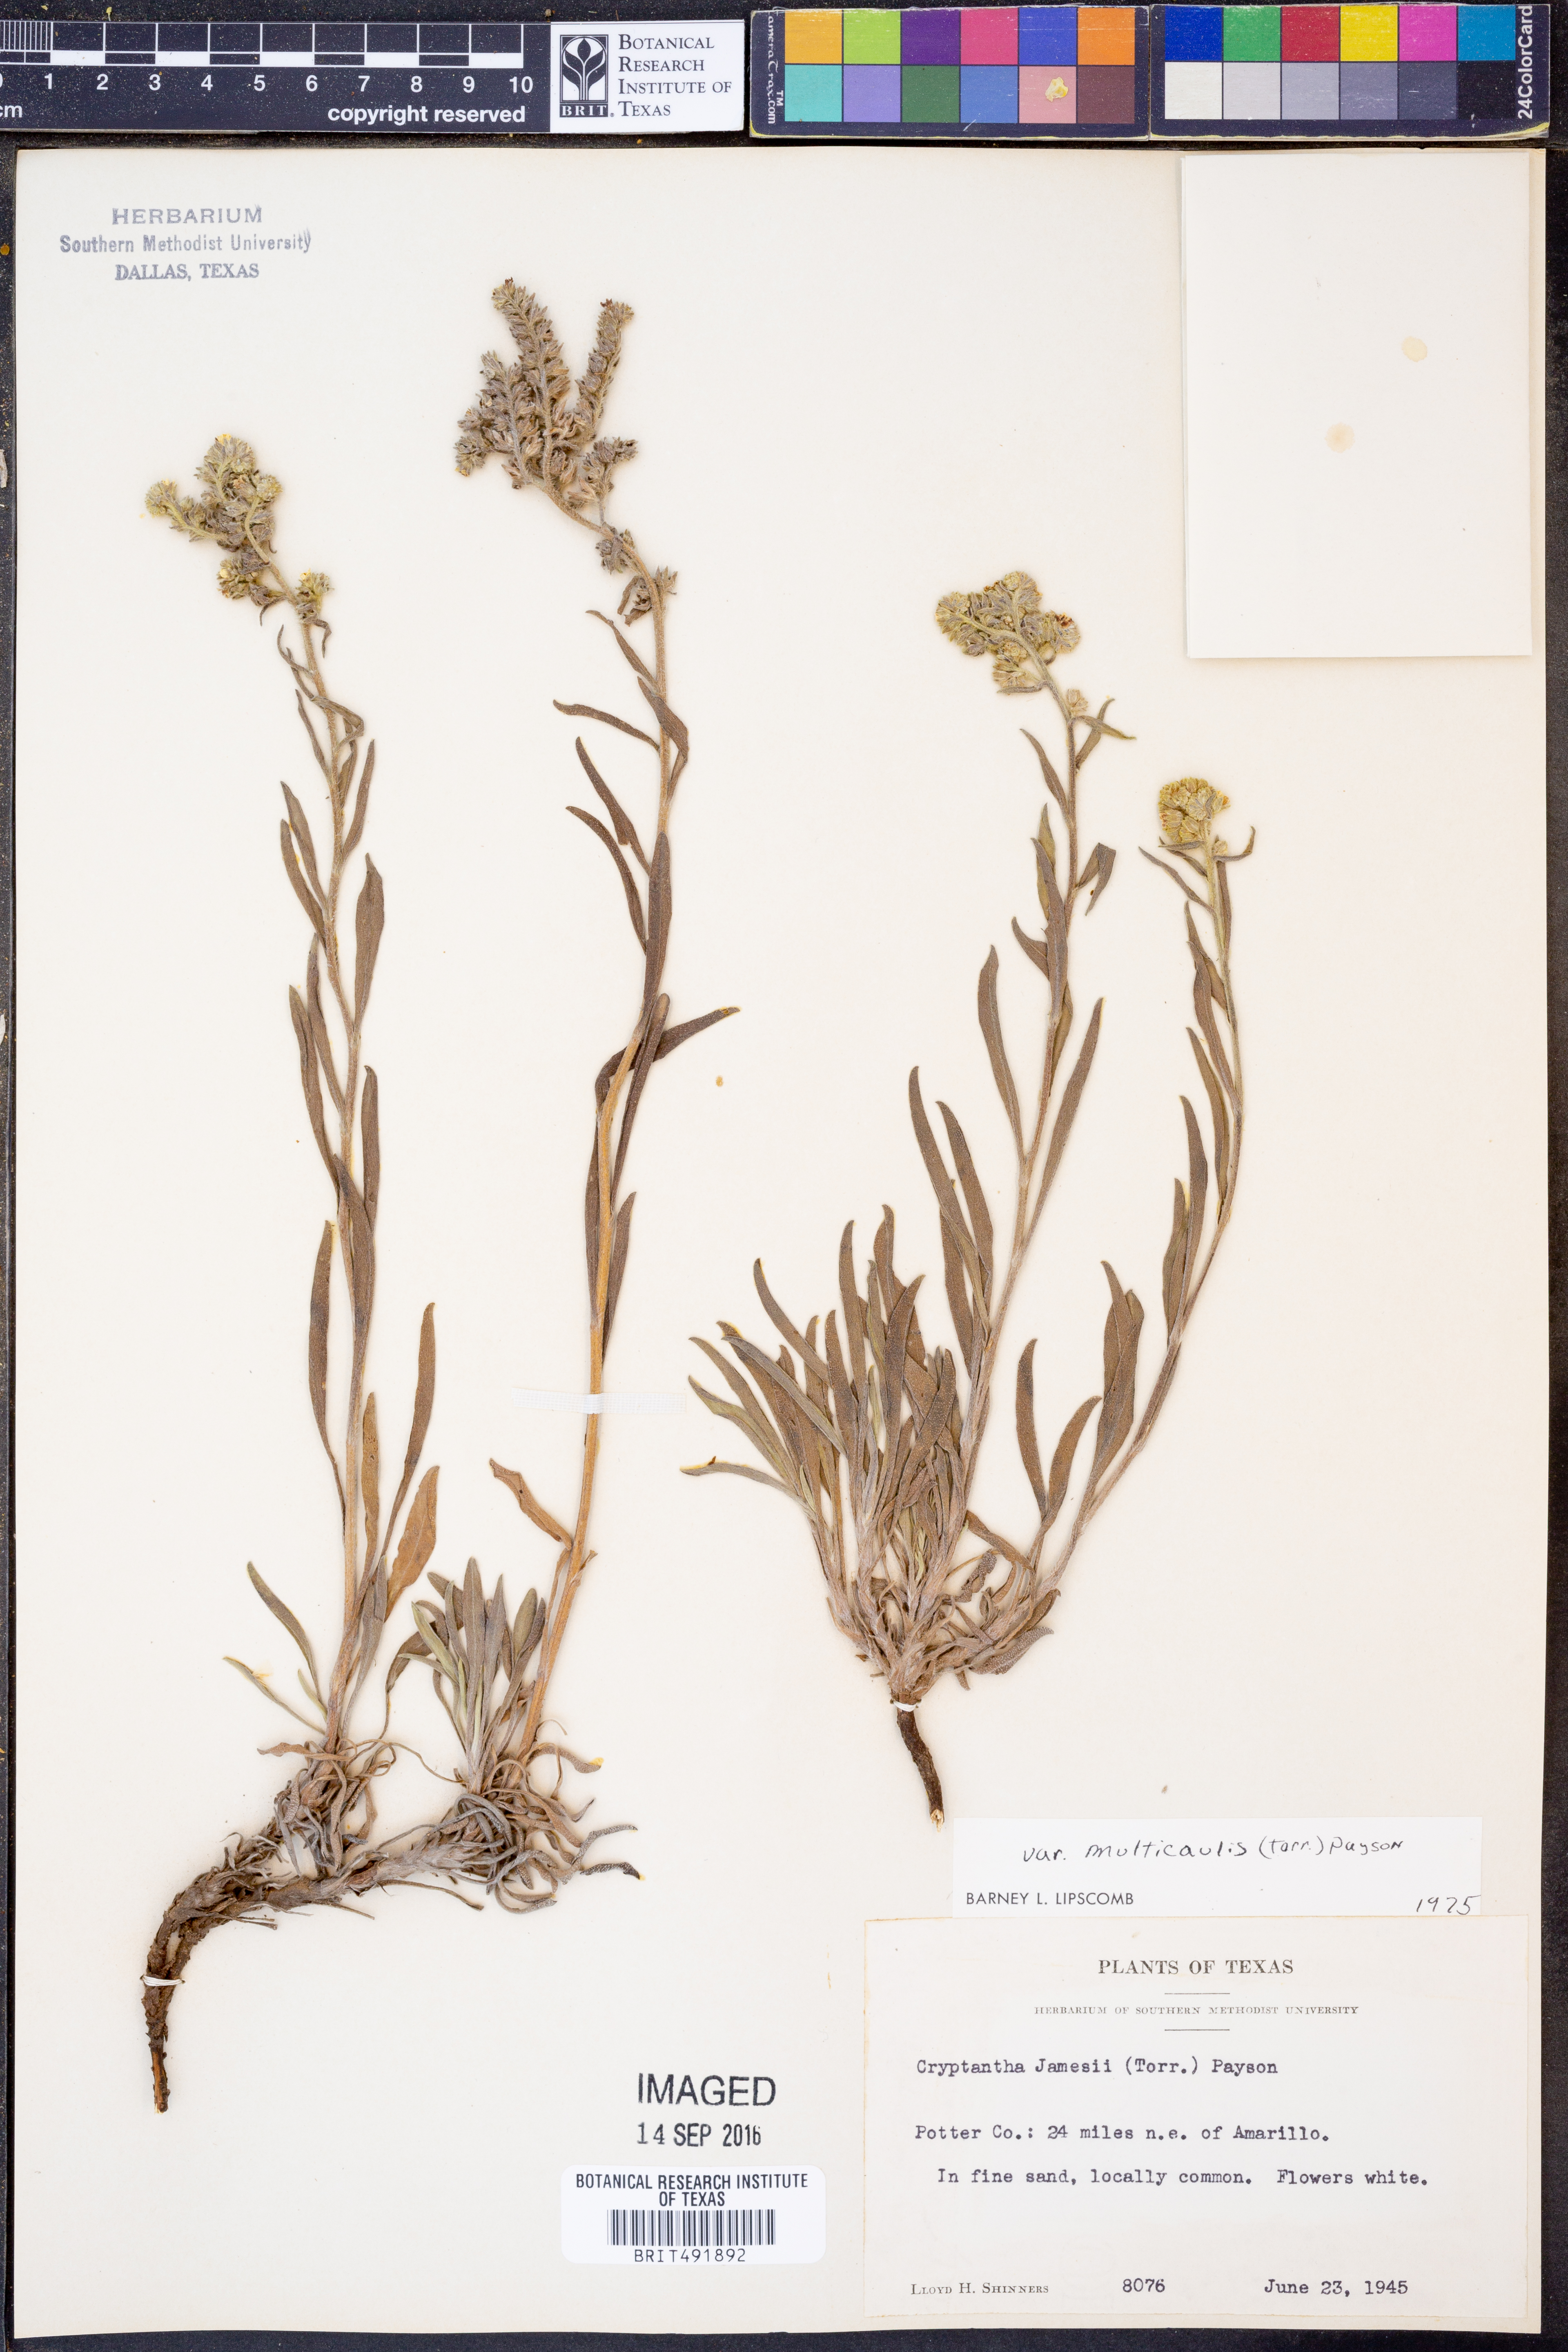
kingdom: Plantae
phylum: Tracheophyta
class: Magnoliopsida
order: Boraginales
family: Boraginaceae
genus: Oreocarya
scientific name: Oreocarya suffruticosa
